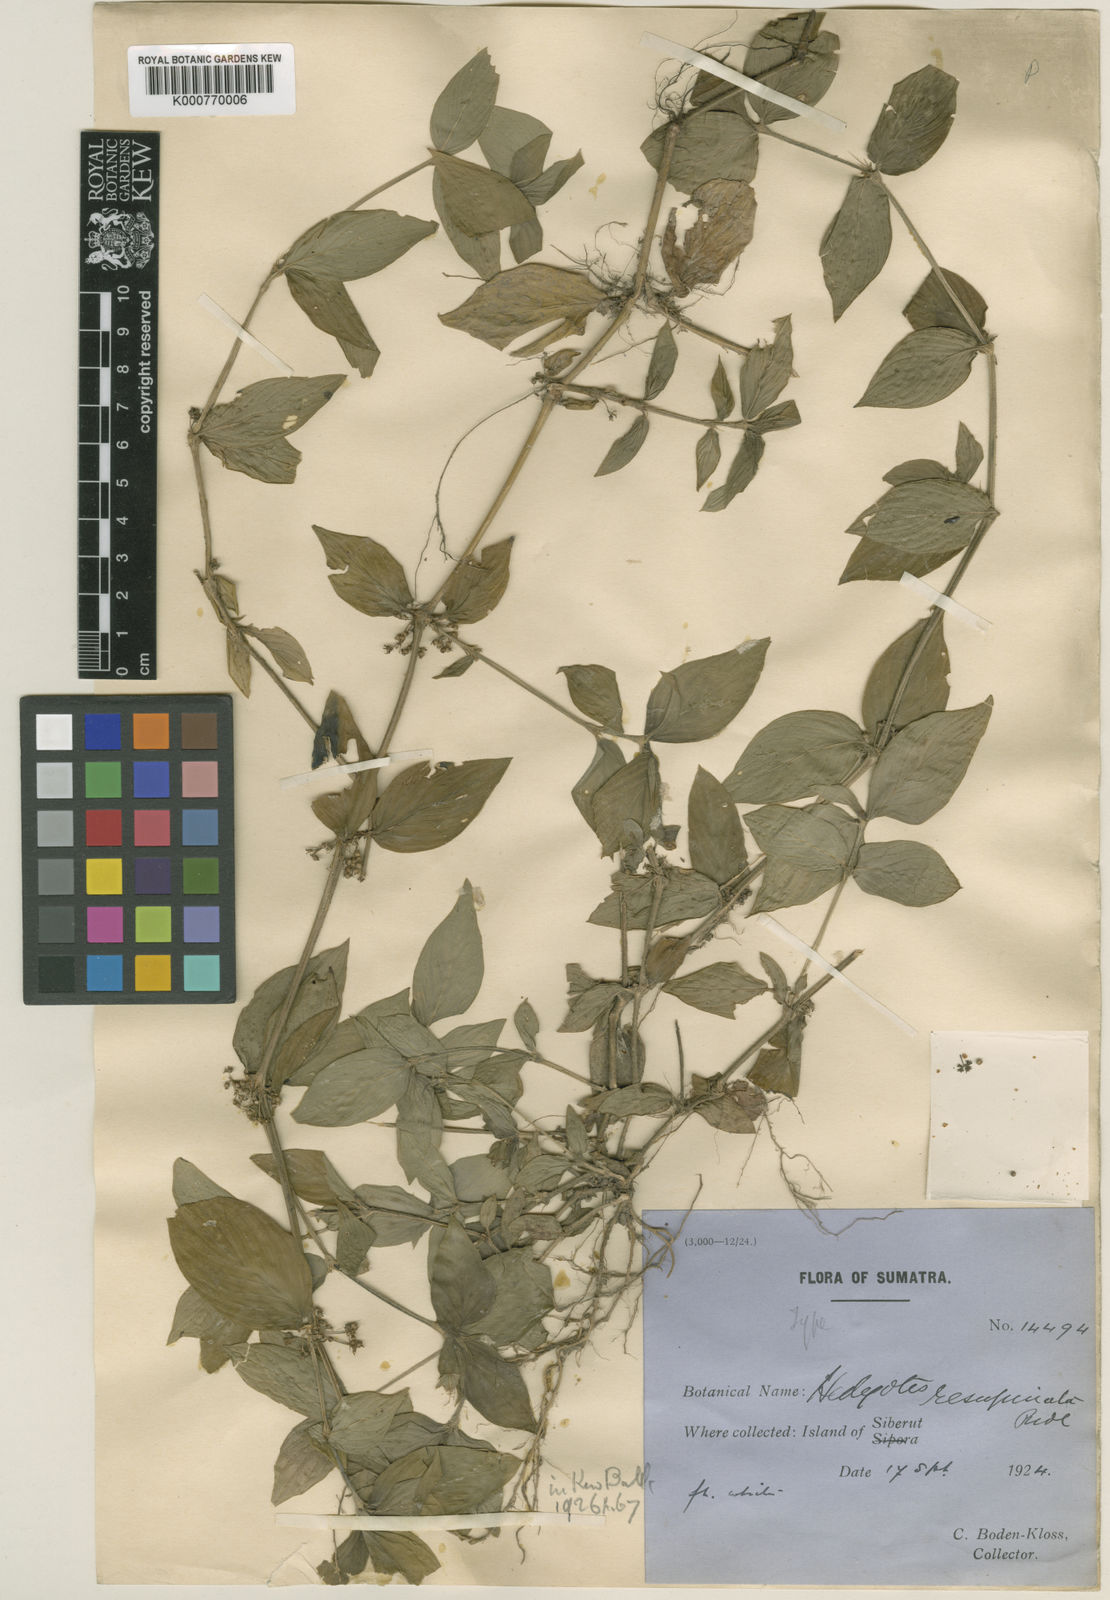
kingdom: Plantae
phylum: Tracheophyta
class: Magnoliopsida
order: Gentianales
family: Rubiaceae
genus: Exallage
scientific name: Exallage
